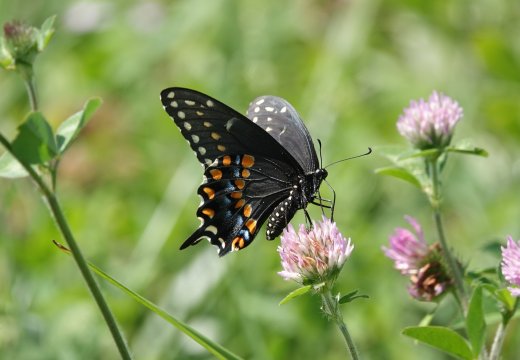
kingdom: Animalia
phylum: Arthropoda
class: Insecta
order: Lepidoptera
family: Papilionidae
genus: Papilio
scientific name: Papilio polyxenes
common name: Black Swallowtail
